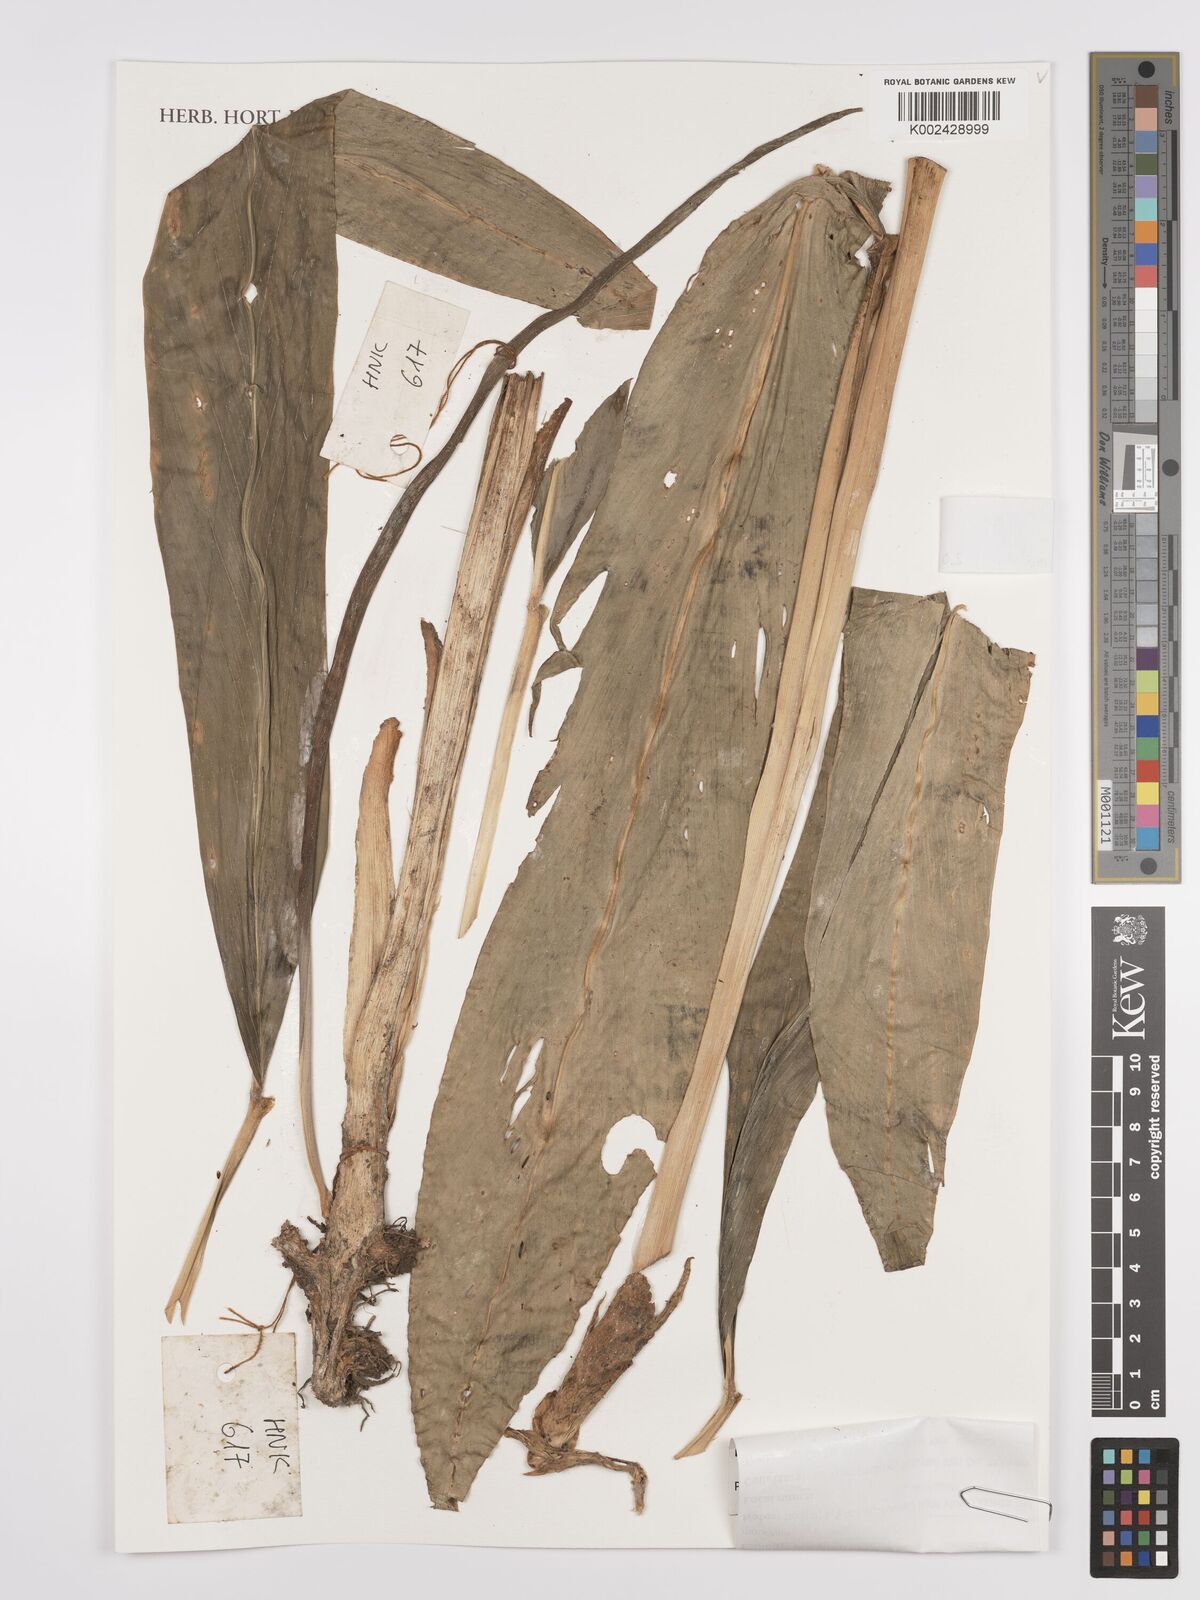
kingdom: Plantae
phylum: Tracheophyta
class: Liliopsida
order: Zingiberales
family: Zingiberaceae
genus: Zingiber
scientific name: Zingiber
